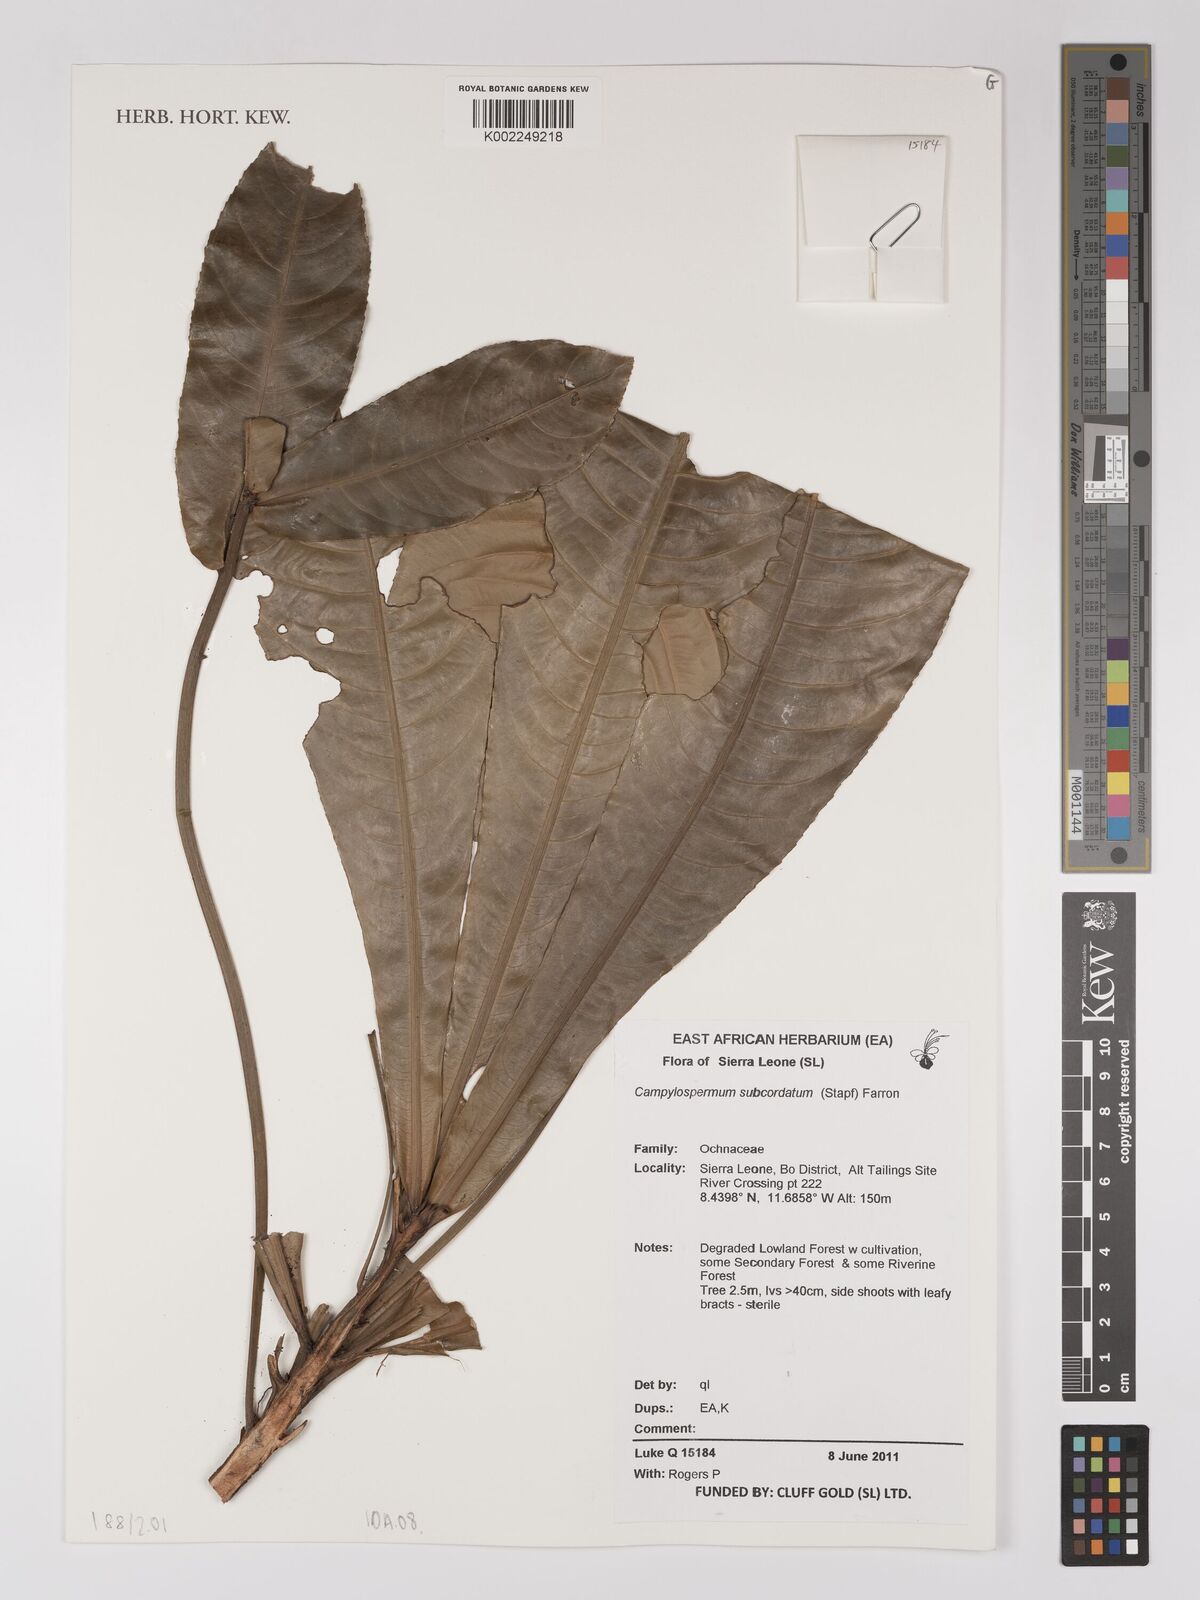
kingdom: Plantae
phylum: Tracheophyta
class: Magnoliopsida
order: Malpighiales
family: Ochnaceae
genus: Campylospermum
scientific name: Campylospermum subcordatum
